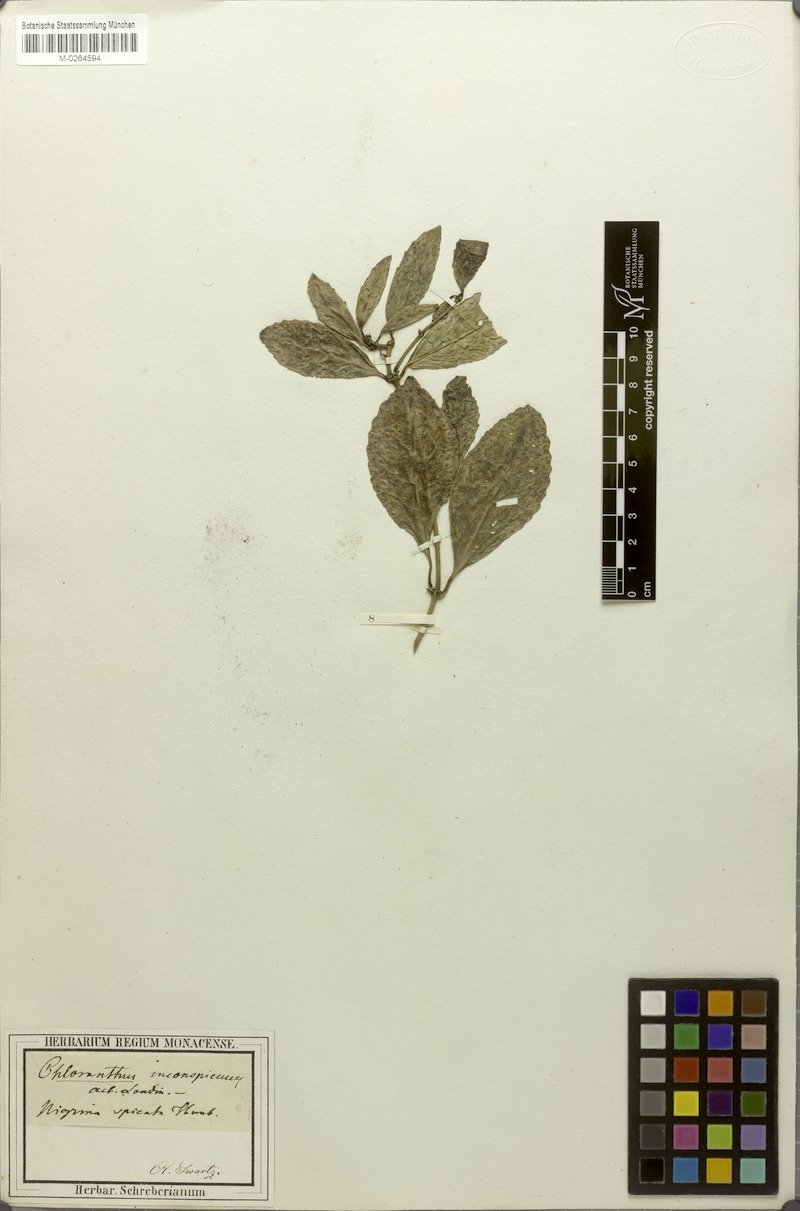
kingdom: Plantae
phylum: Tracheophyta
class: Magnoliopsida
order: Chloranthales
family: Chloranthaceae
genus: Chloranthus
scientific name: Chloranthus spicatus
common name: Chulantree
